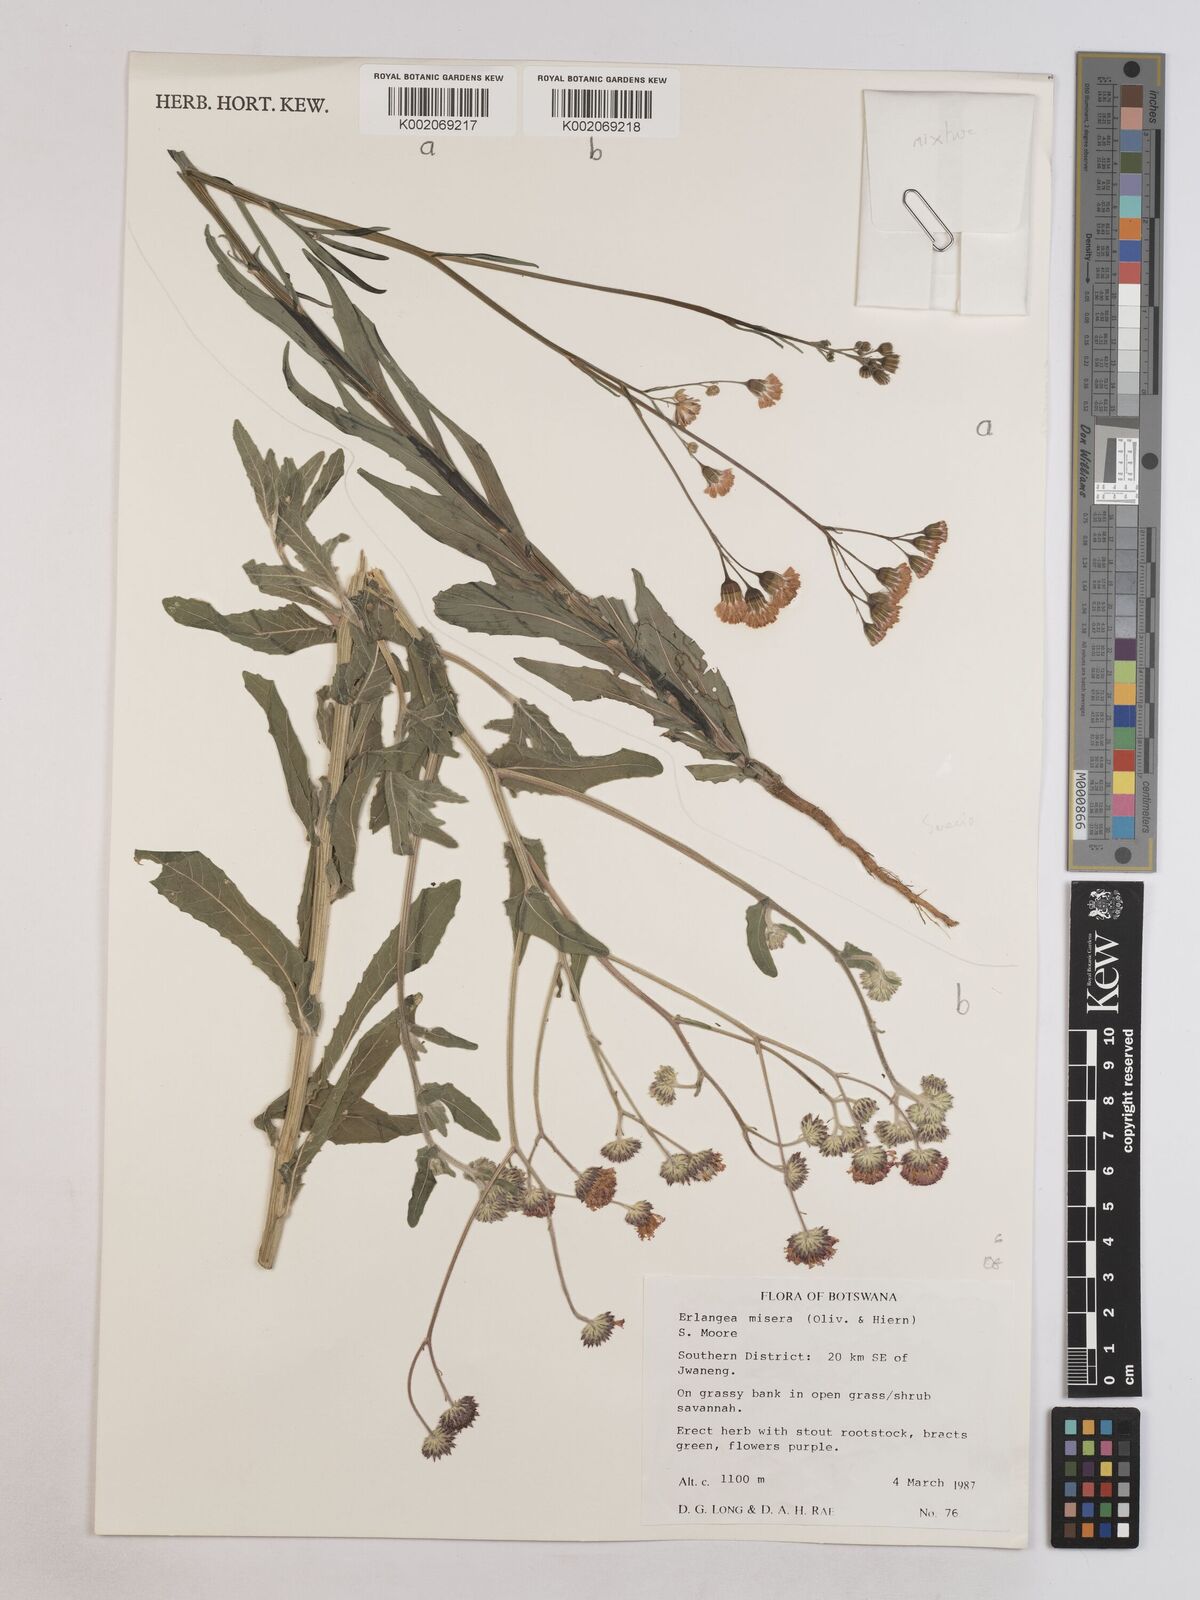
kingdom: Plantae
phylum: Tracheophyta
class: Magnoliopsida
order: Asterales
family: Asteraceae
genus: Erlangea
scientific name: Erlangea misera
